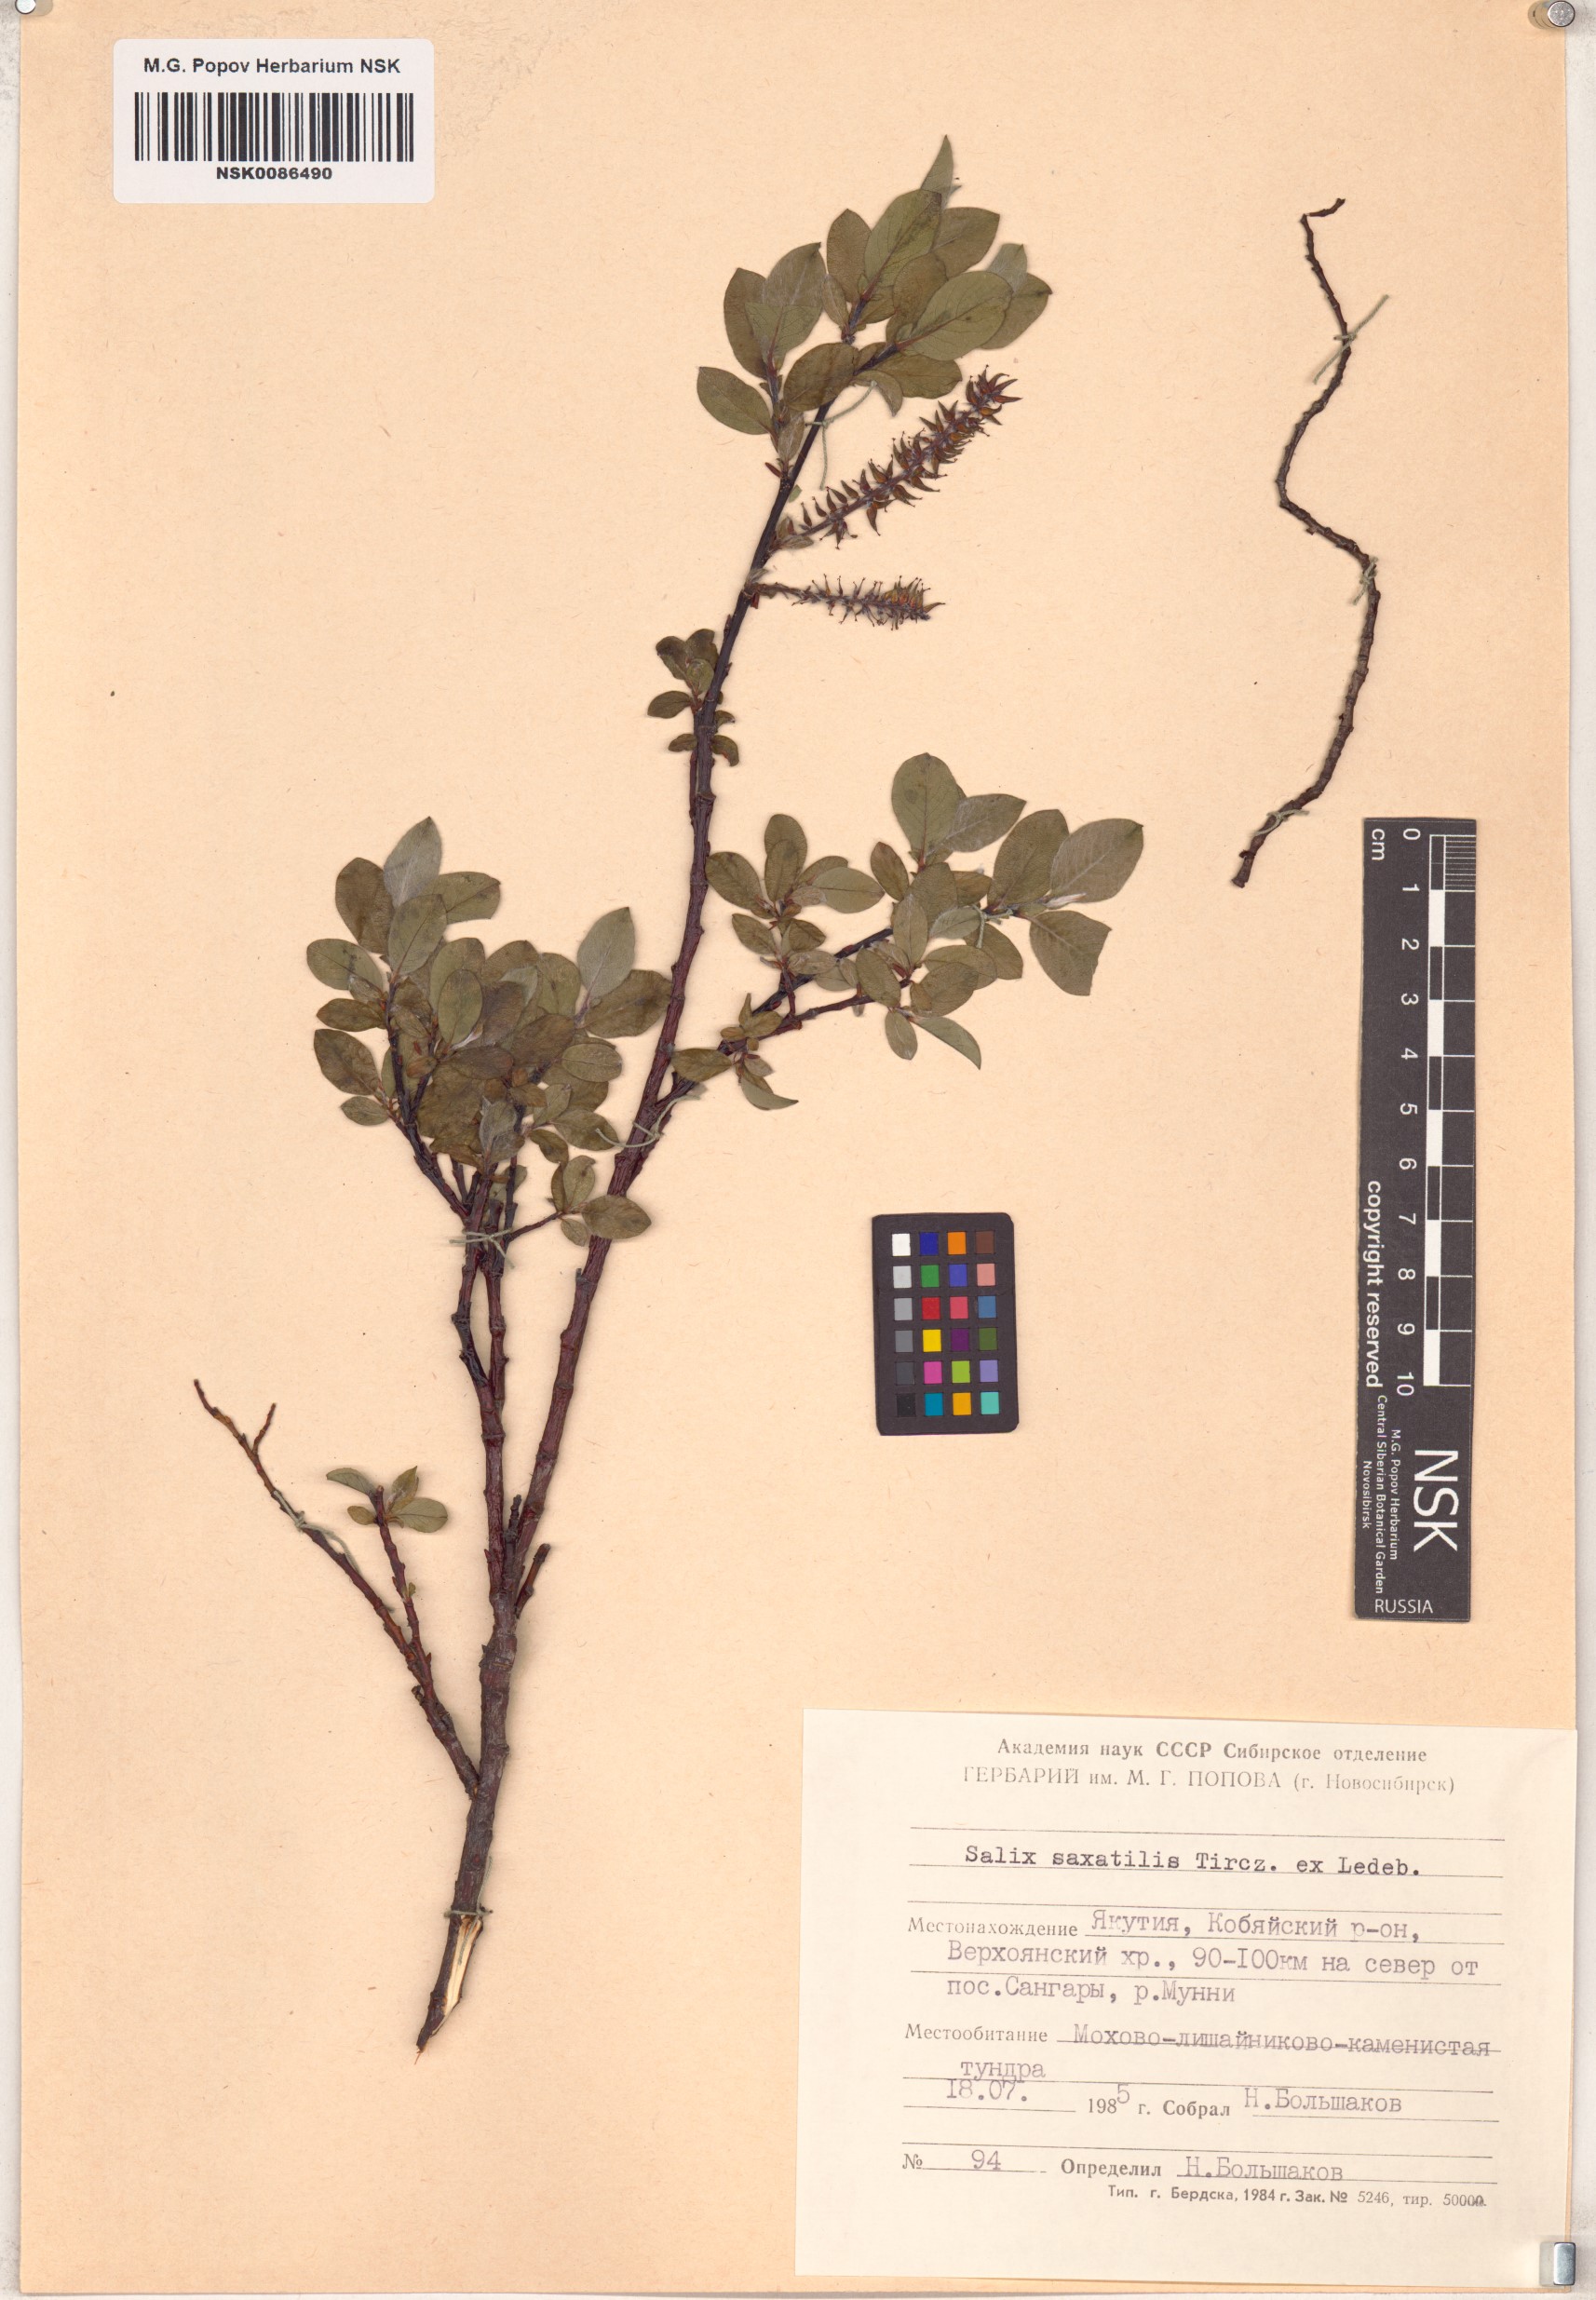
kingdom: Plantae
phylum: Tracheophyta
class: Magnoliopsida
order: Malpighiales
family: Salicaceae
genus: Salix
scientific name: Salix saxatilis
